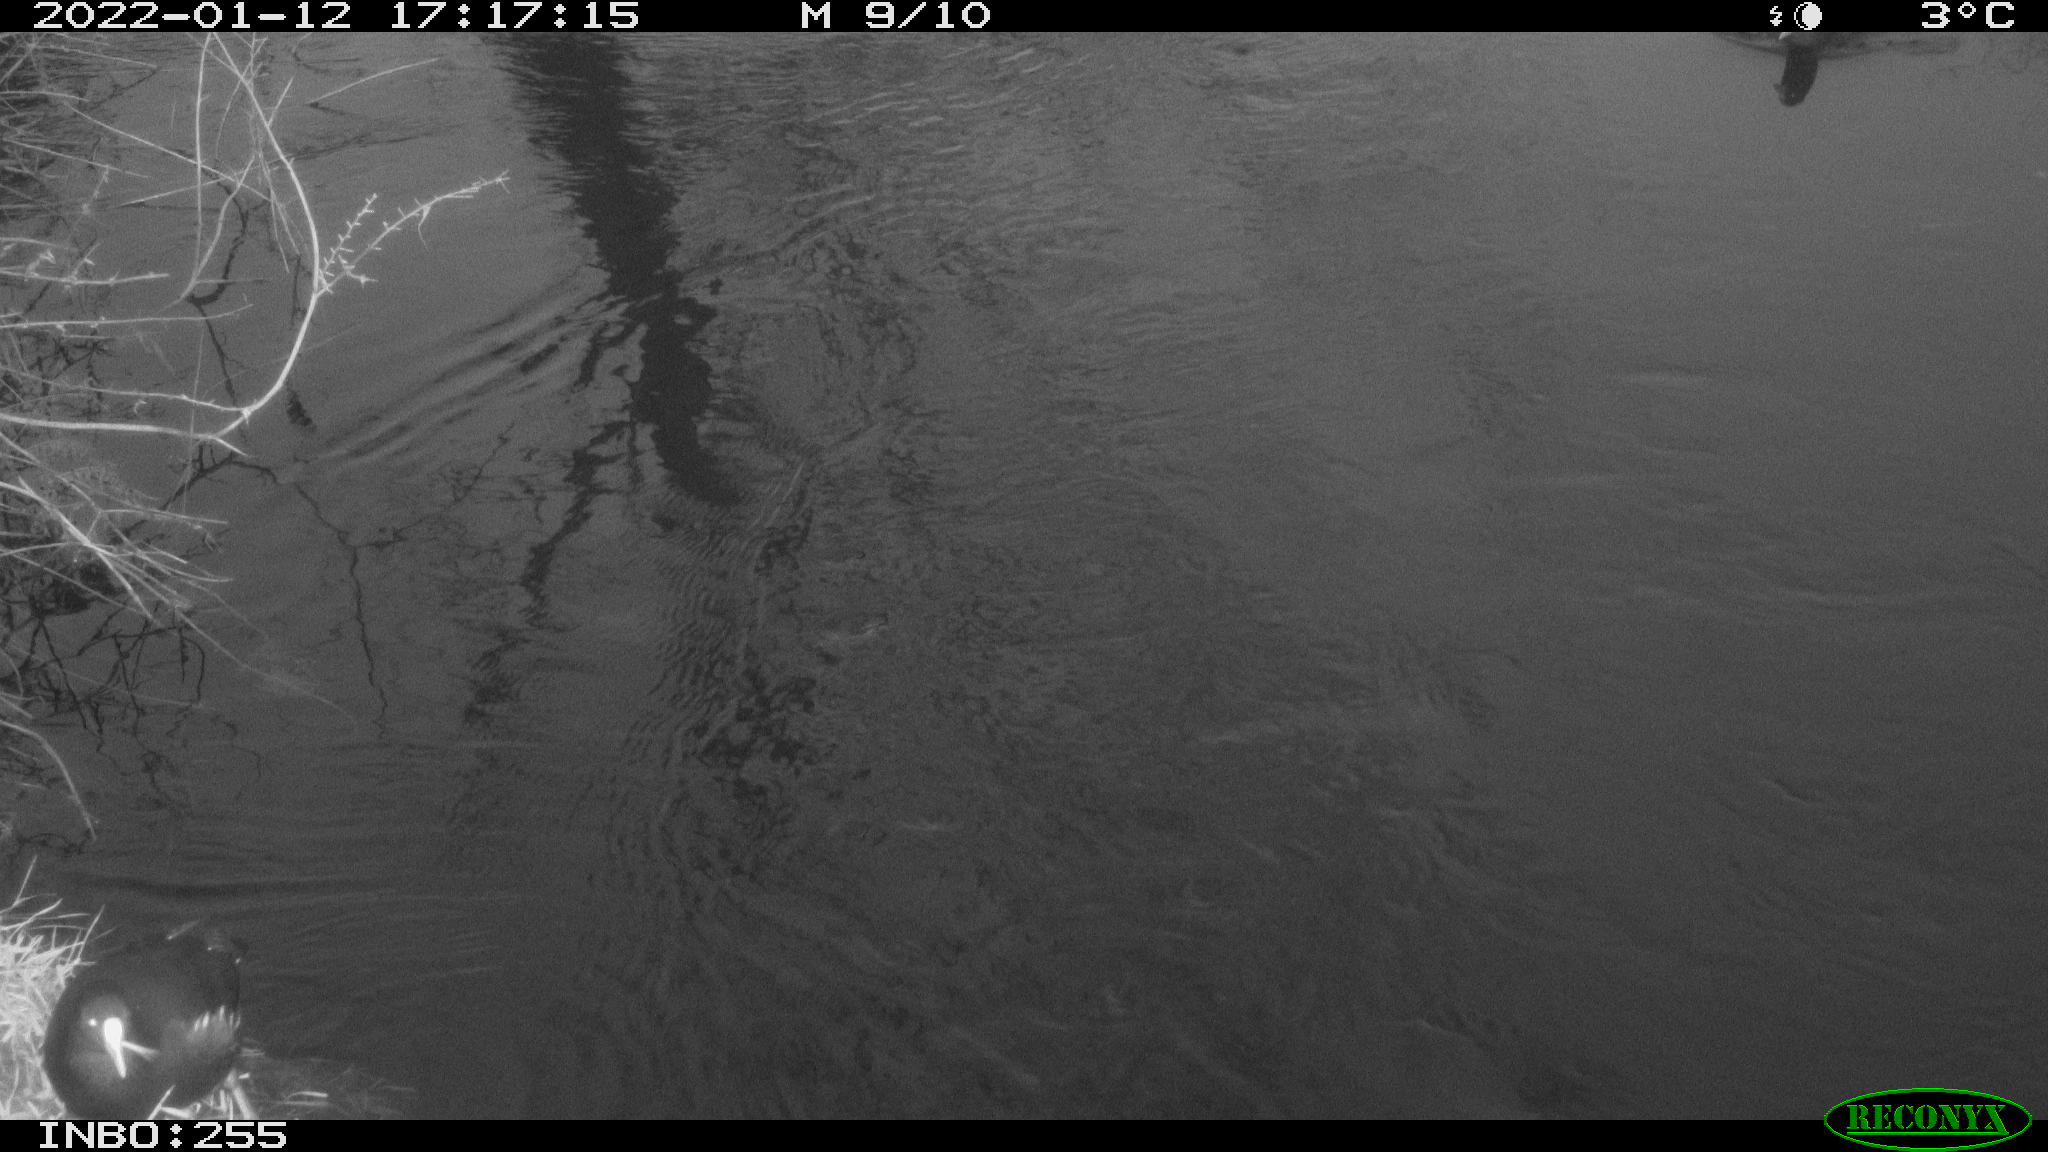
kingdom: Animalia
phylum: Chordata
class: Aves
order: Gruiformes
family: Rallidae
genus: Gallinula
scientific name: Gallinula chloropus
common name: Common moorhen
